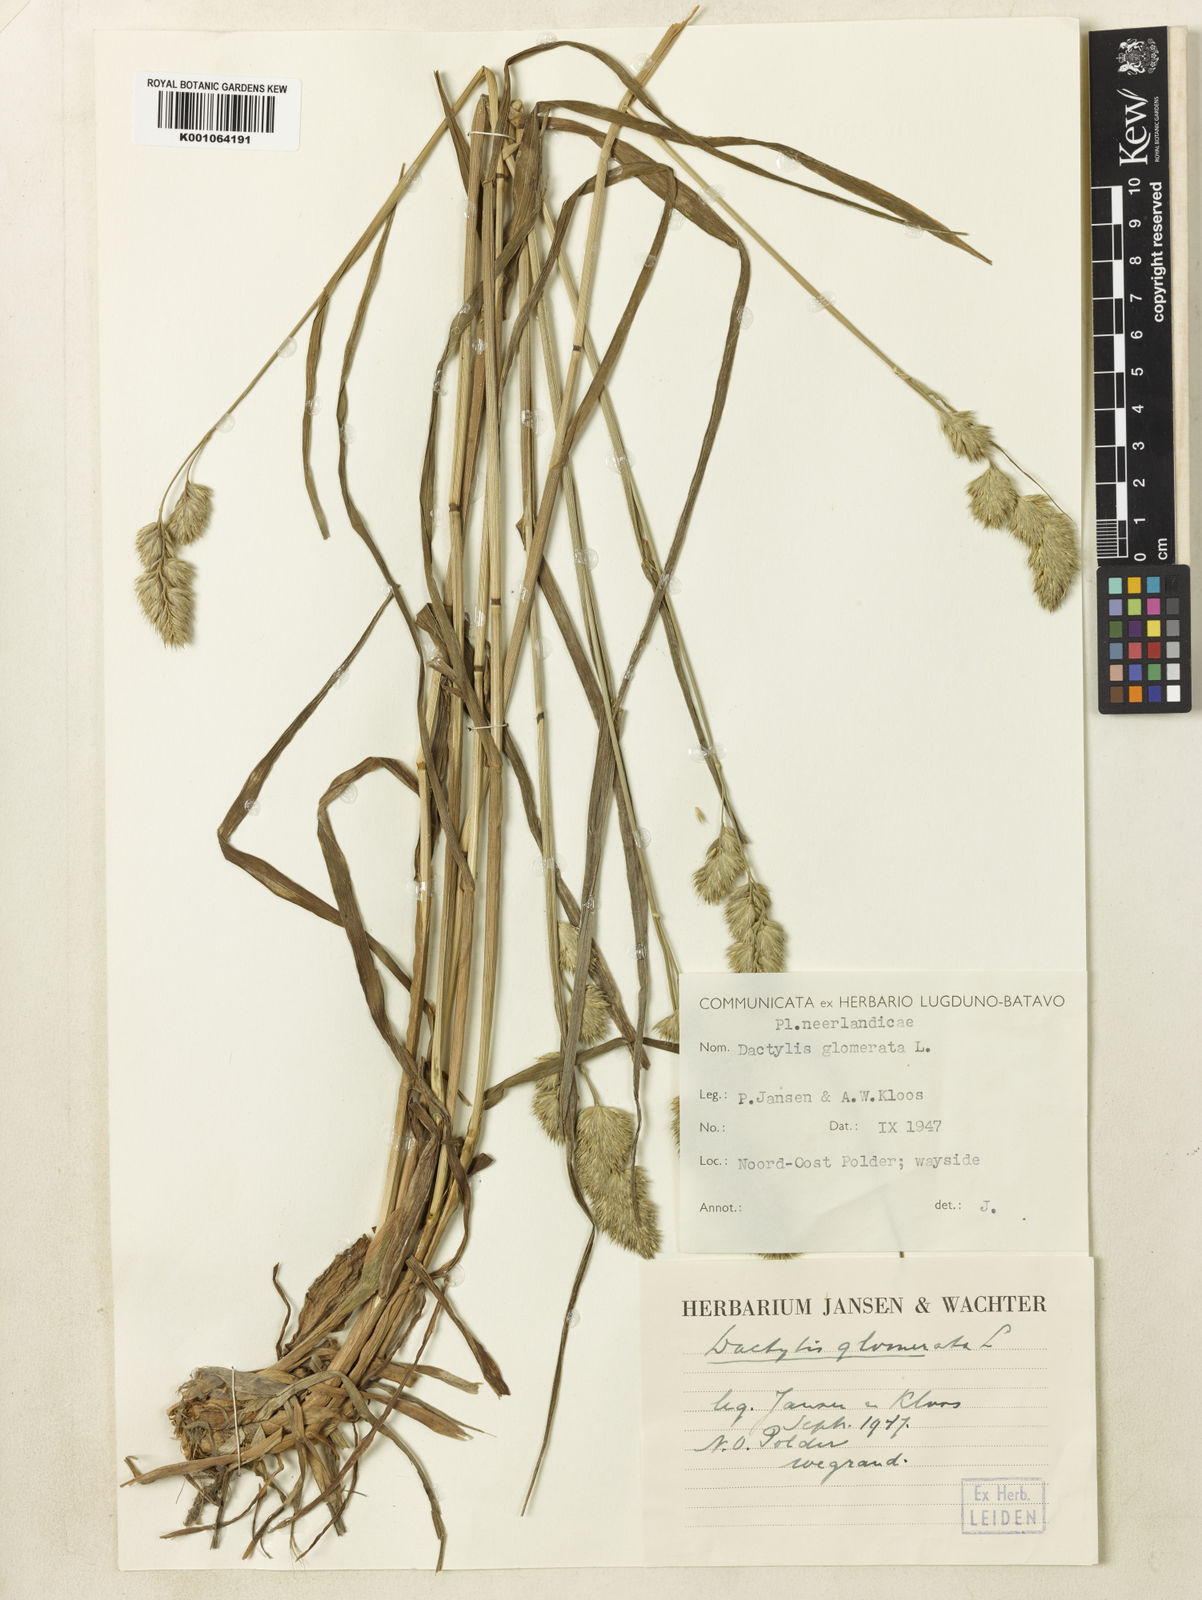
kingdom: Plantae
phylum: Tracheophyta
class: Liliopsida
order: Poales
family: Poaceae
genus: Dactylis
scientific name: Dactylis glomerata
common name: Orchardgrass
